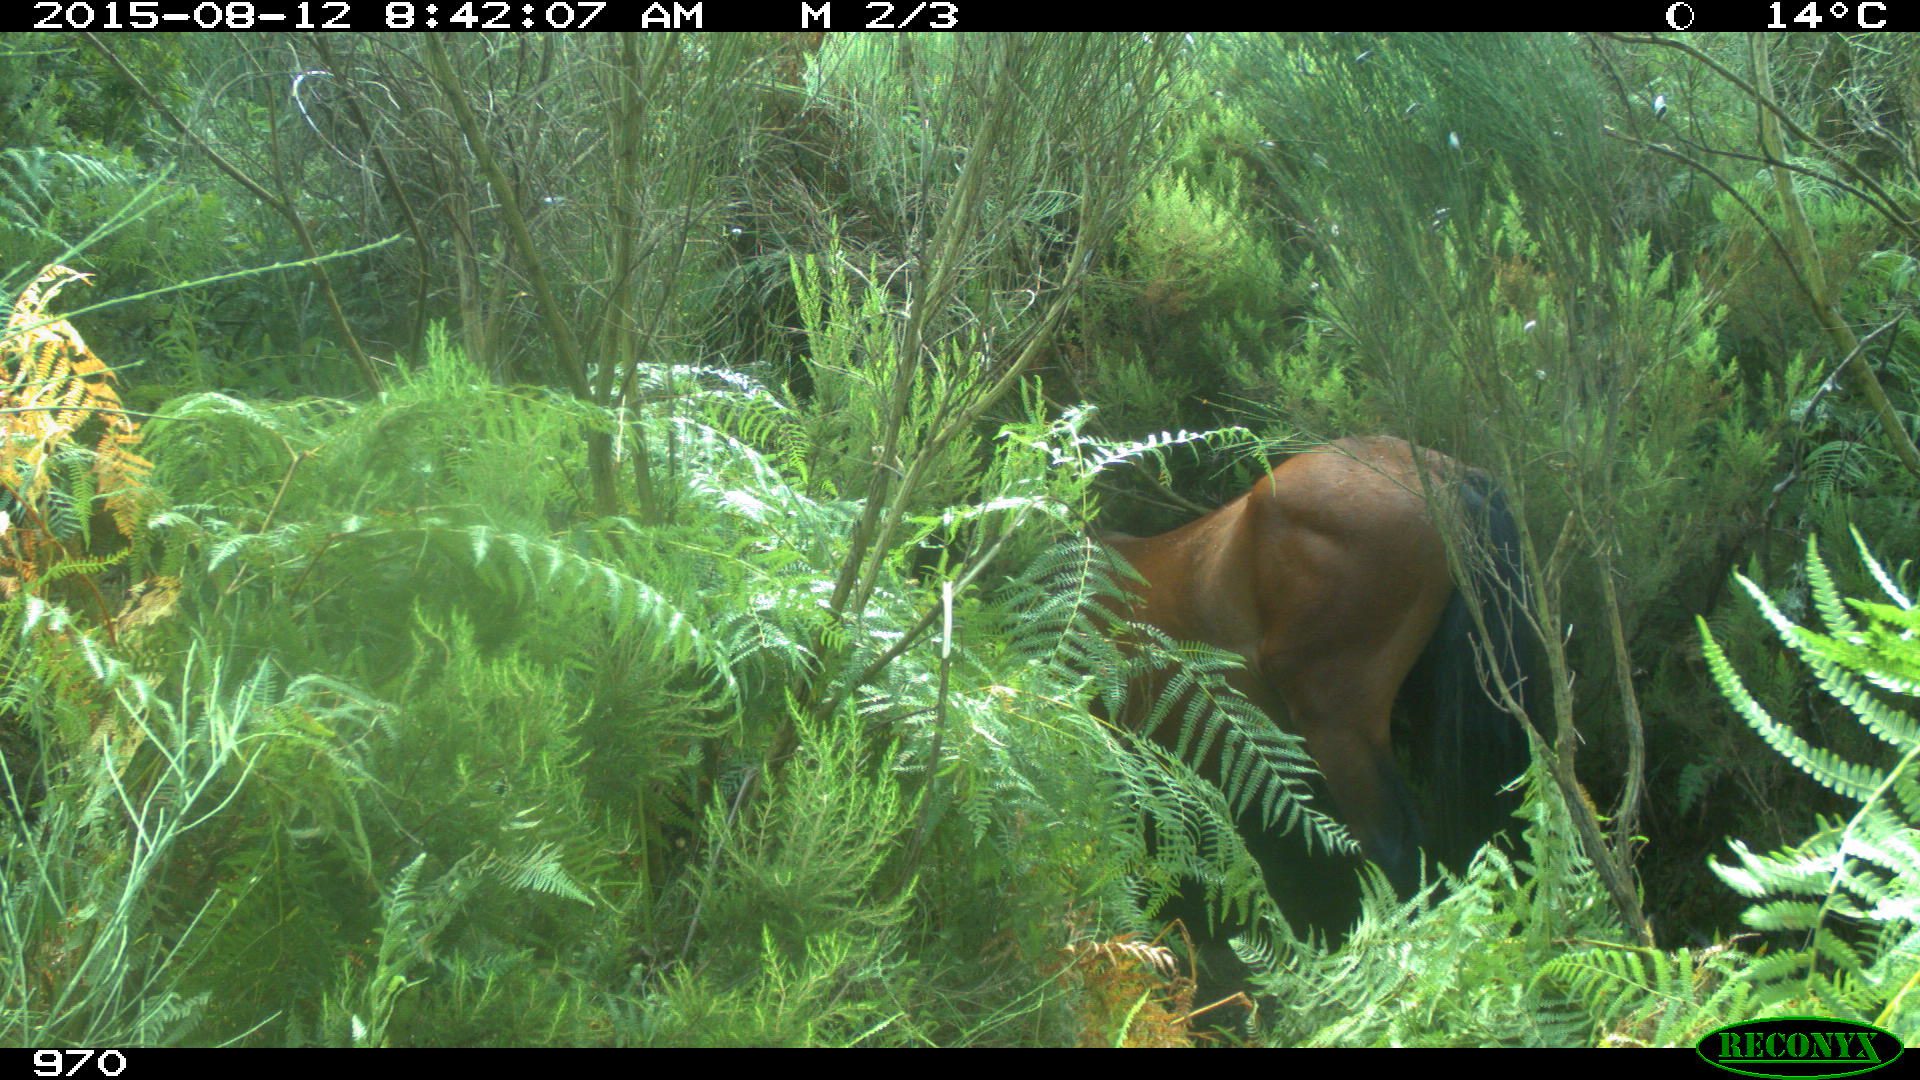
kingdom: Animalia
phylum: Chordata
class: Mammalia
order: Perissodactyla
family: Equidae
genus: Equus
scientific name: Equus caballus
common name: Horse
